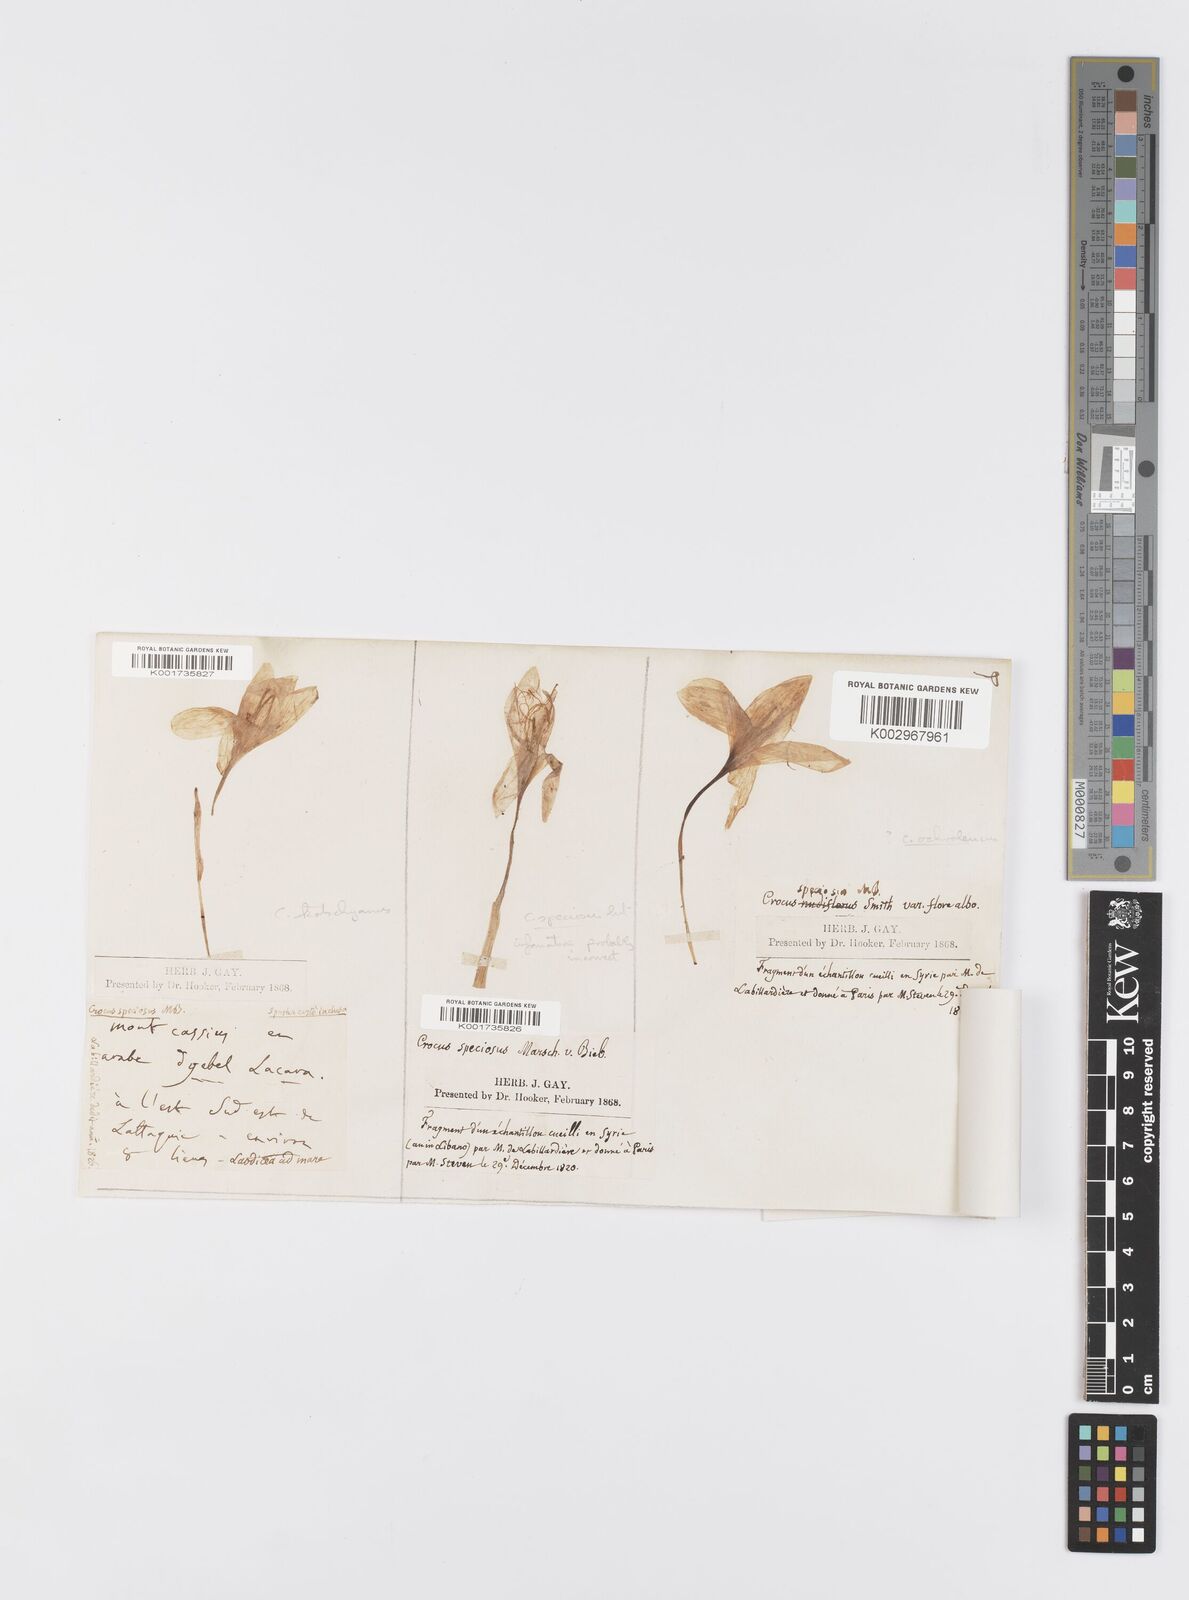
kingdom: Plantae
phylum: Tracheophyta
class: Liliopsida
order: Asparagales
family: Iridaceae
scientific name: Iridaceae
